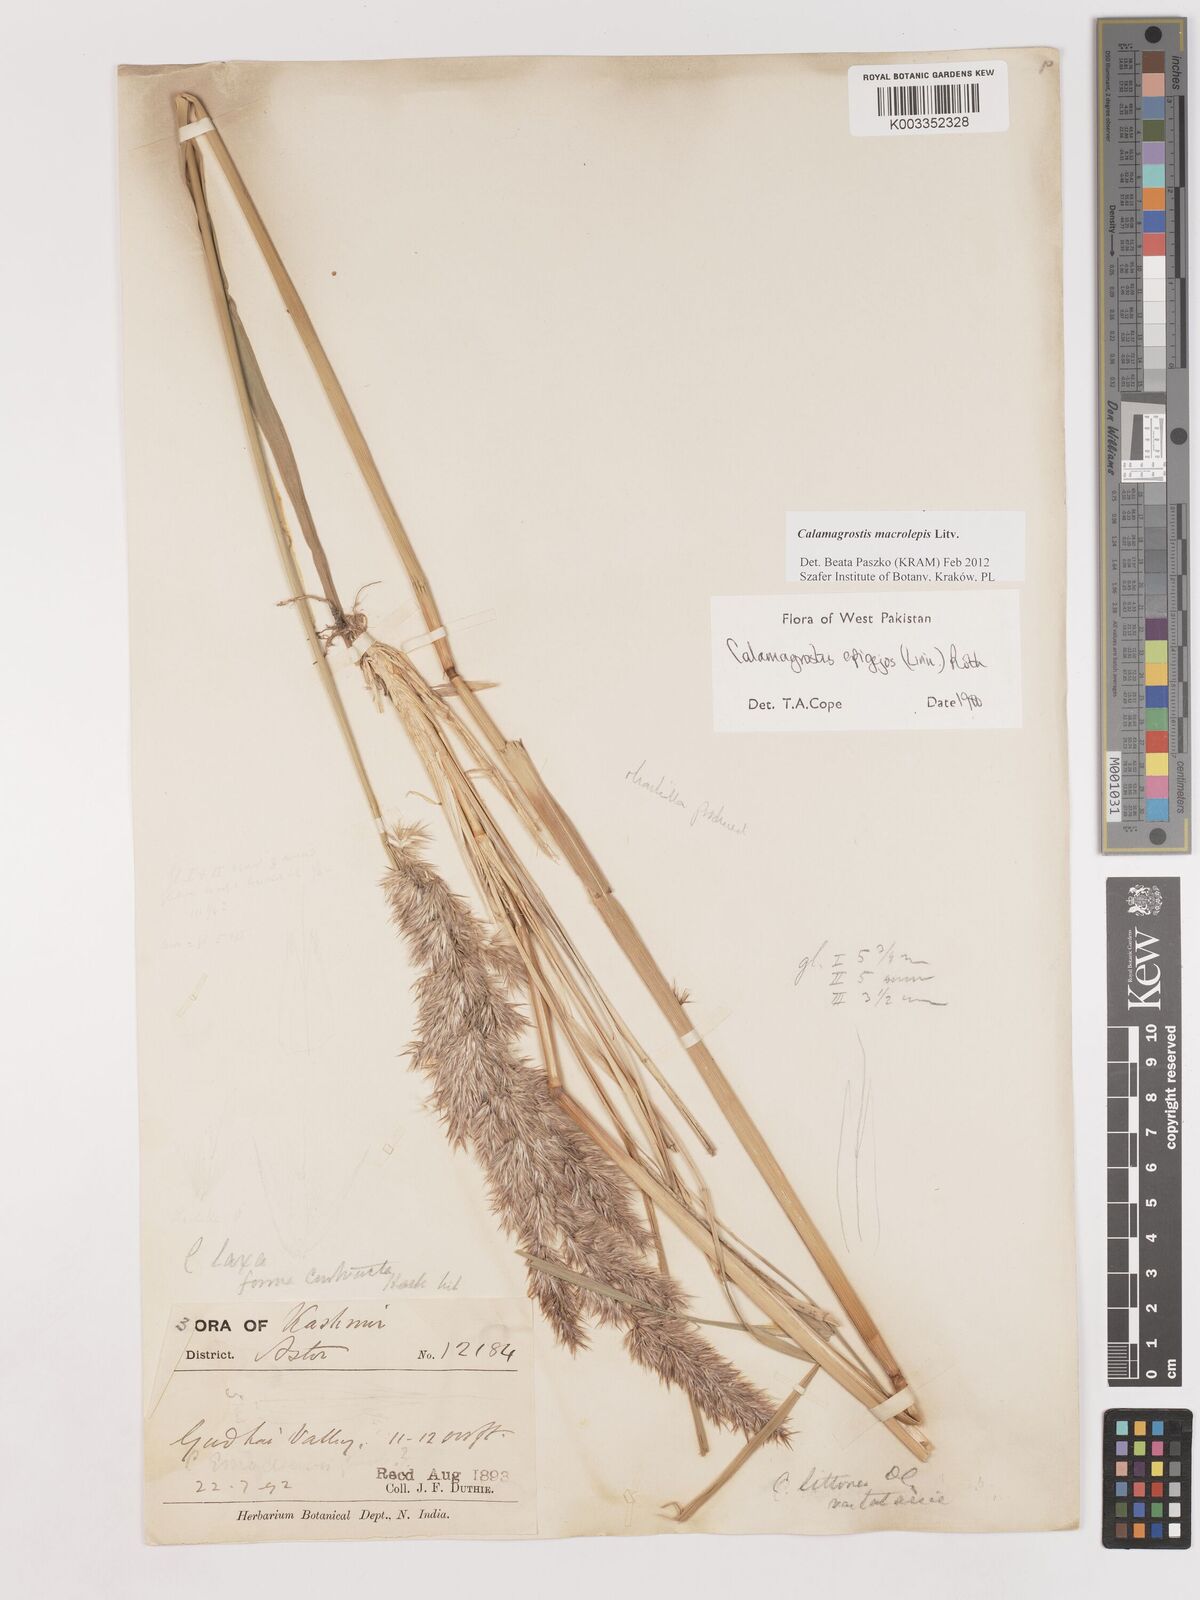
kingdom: Plantae
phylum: Tracheophyta
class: Liliopsida
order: Poales
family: Poaceae
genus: Calamagrostis
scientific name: Calamagrostis epigejos
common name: Wood small-reed
